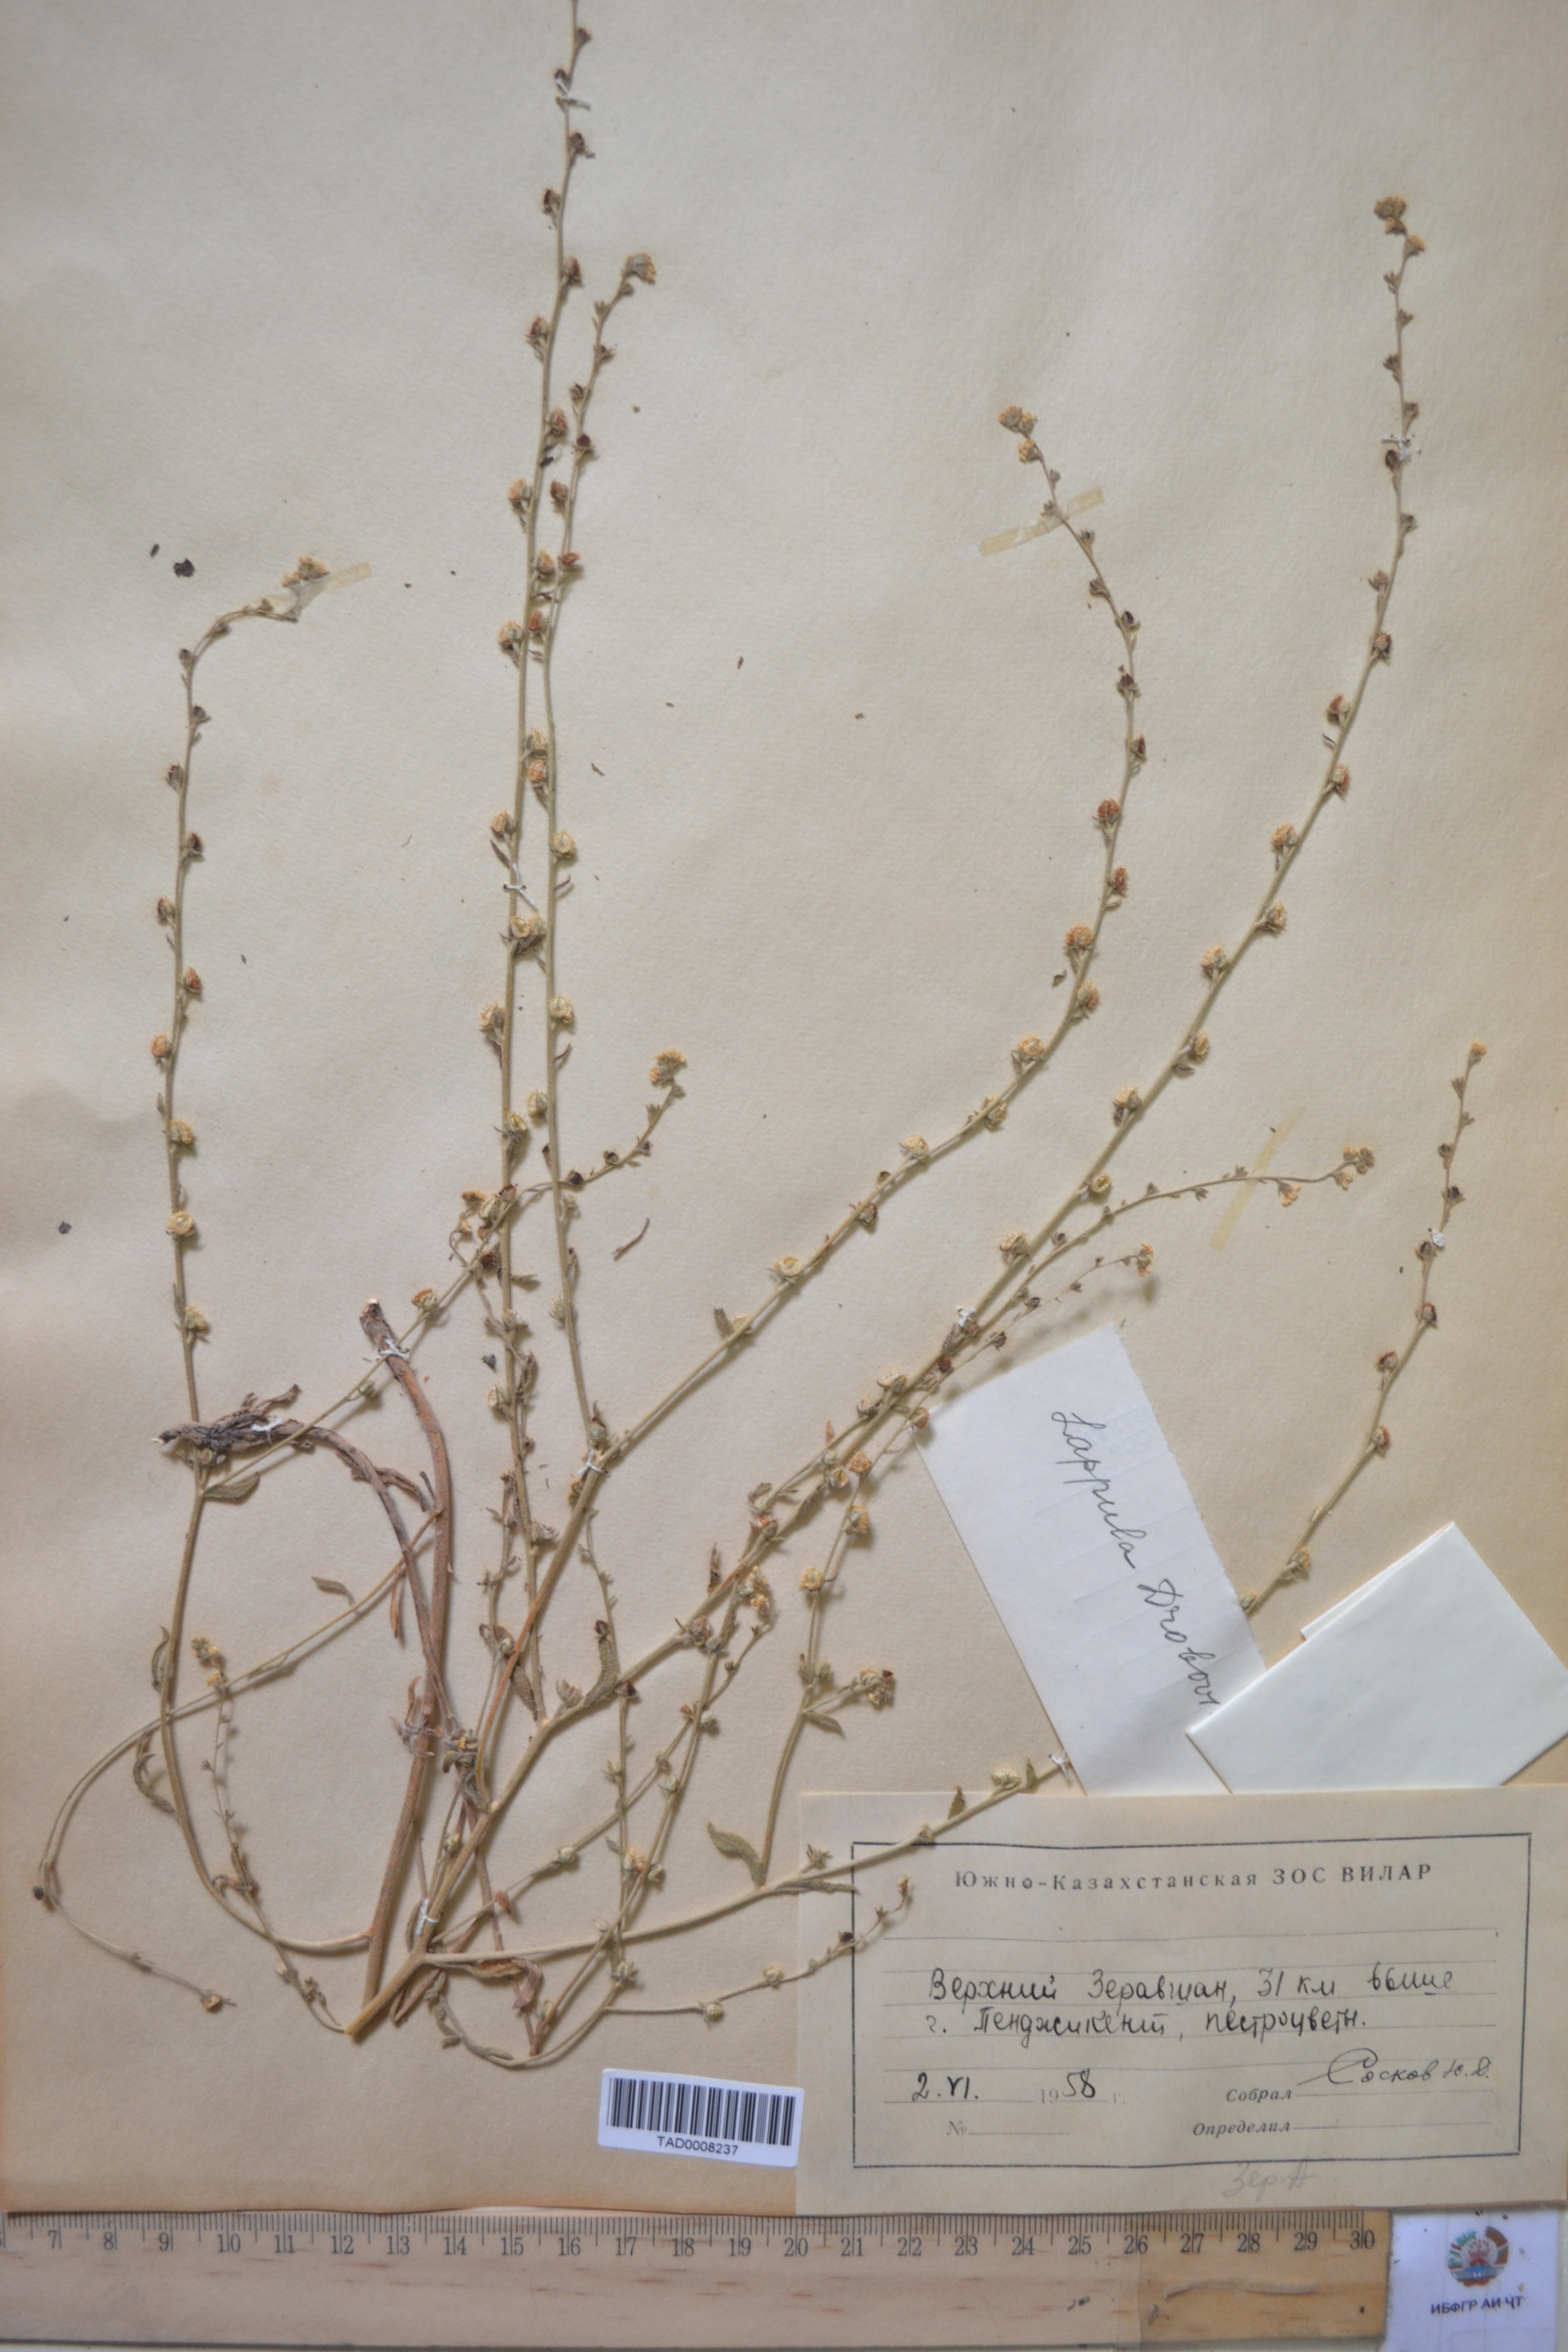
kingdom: Plantae
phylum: Tracheophyta
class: Magnoliopsida
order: Boraginales
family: Boraginaceae
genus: Rochelia
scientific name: Rochelia drobovii
